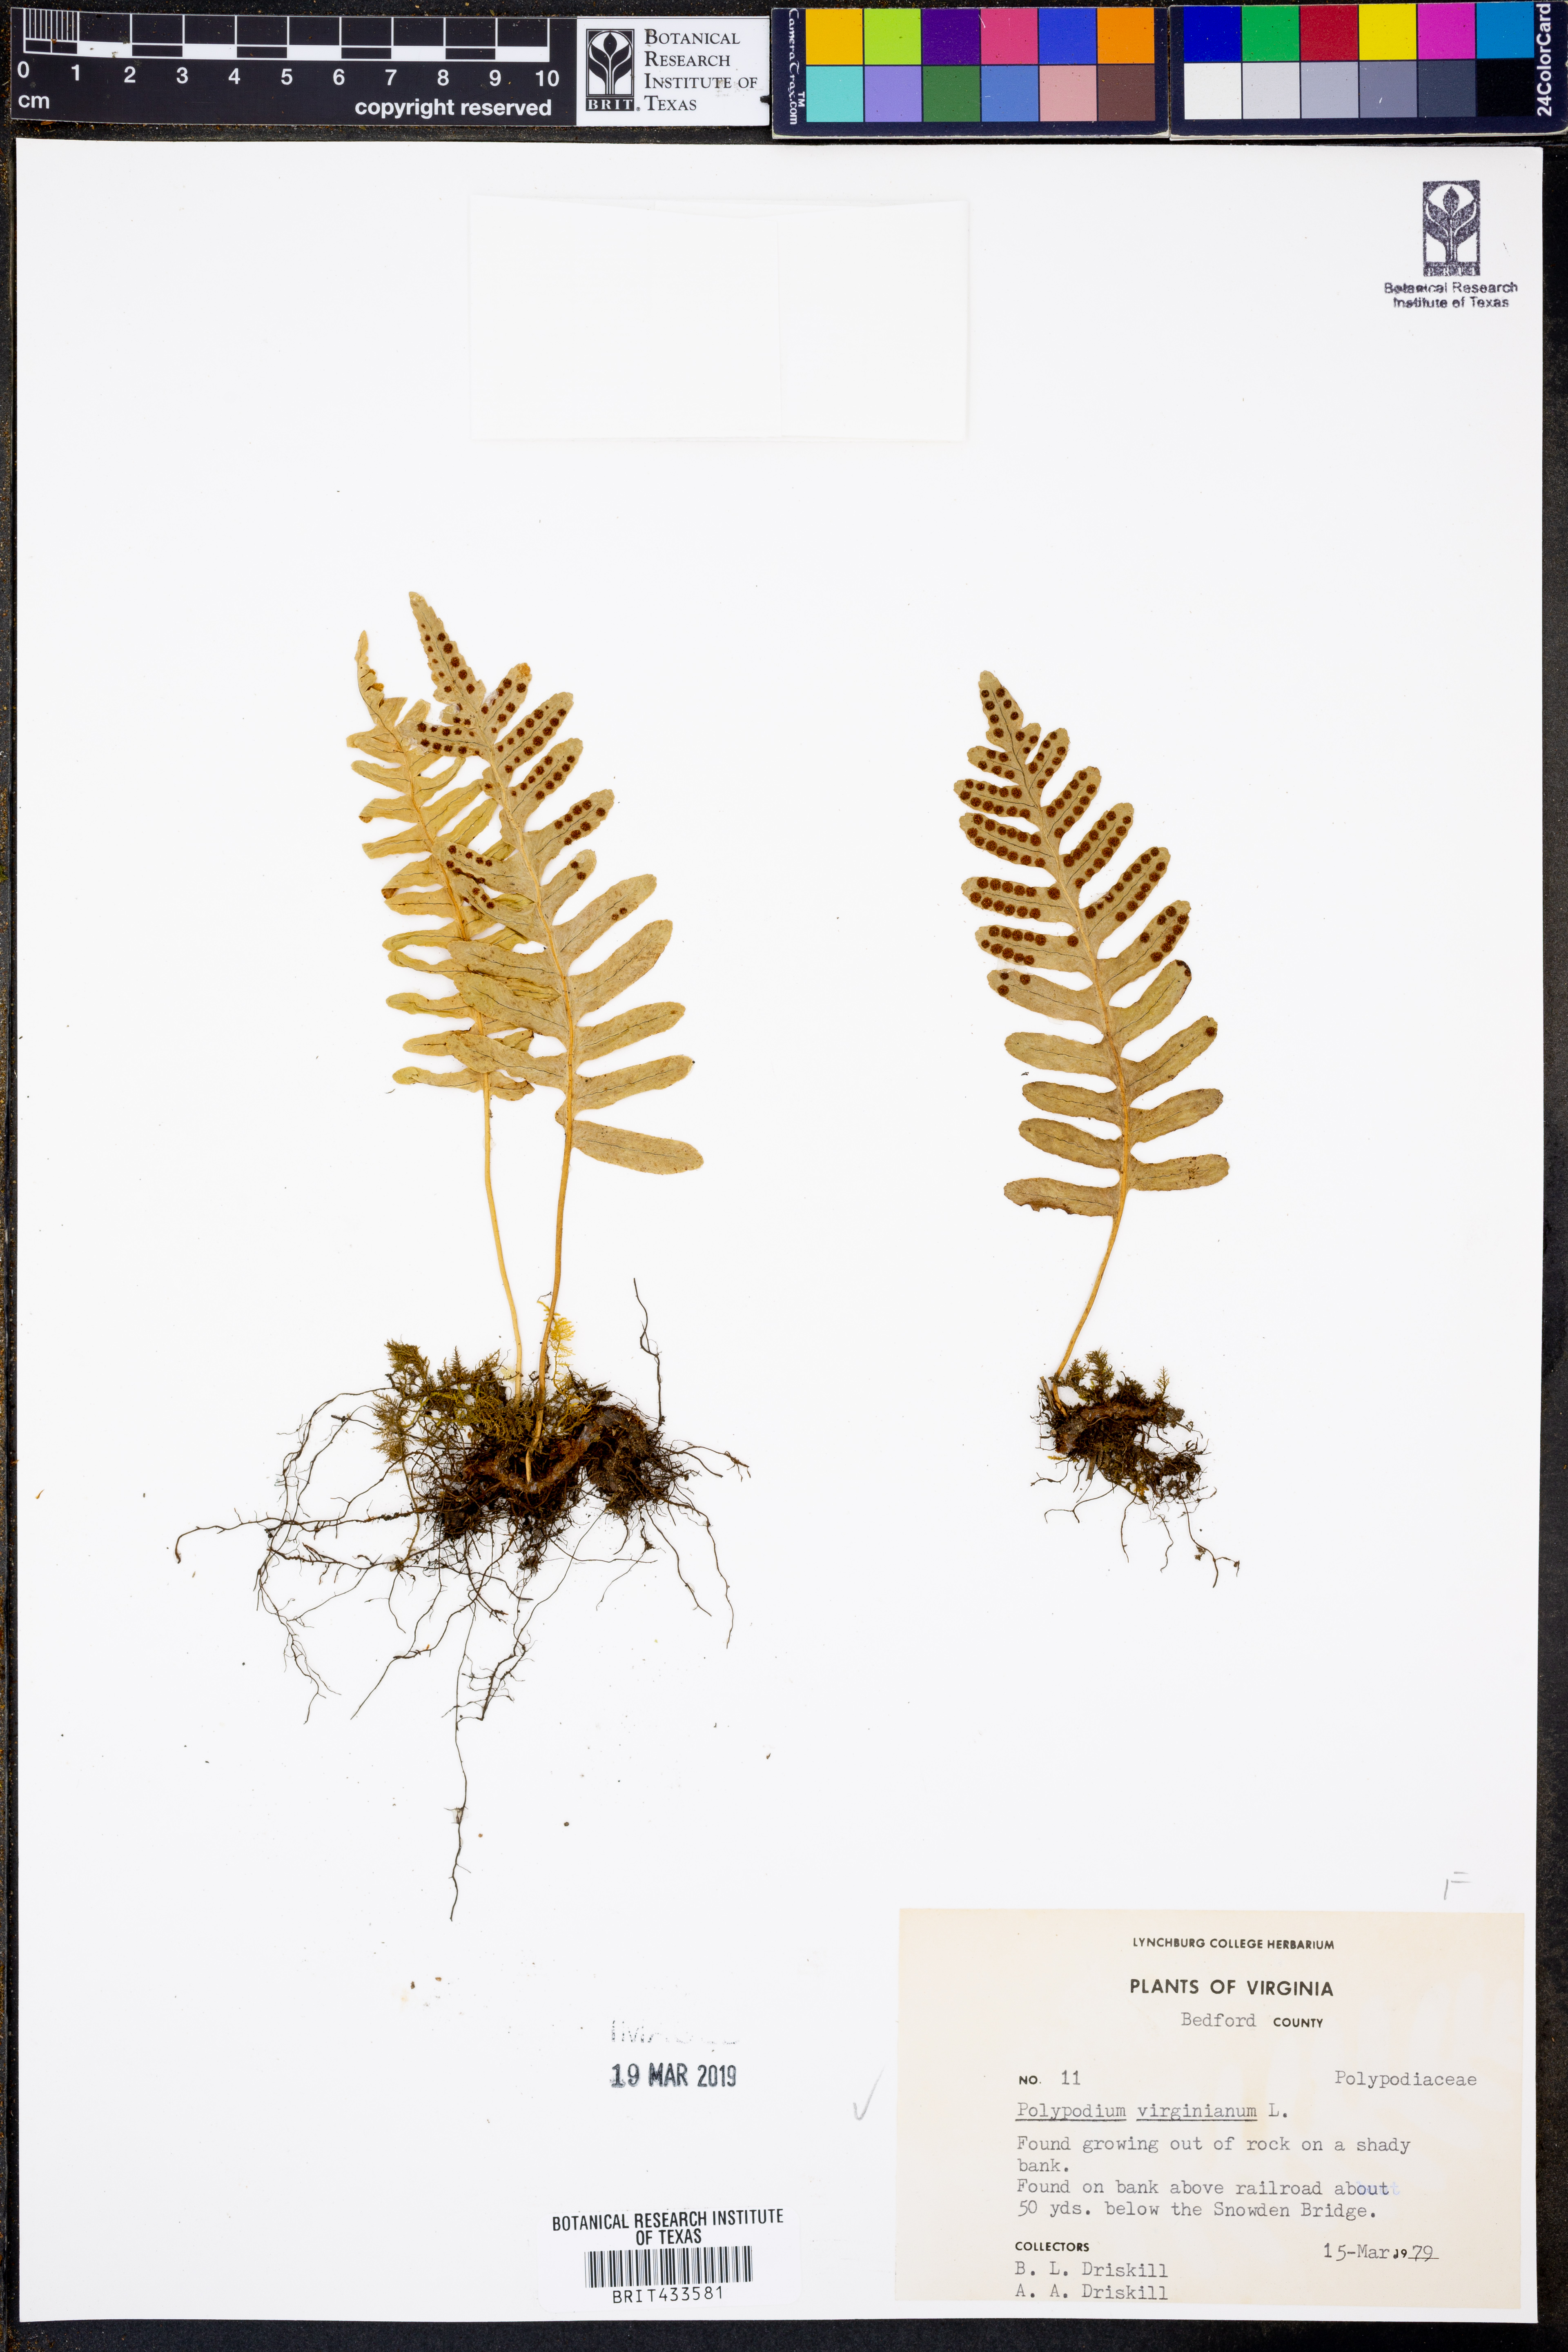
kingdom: Plantae
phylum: Tracheophyta
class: Polypodiopsida
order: Polypodiales
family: Polypodiaceae
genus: Polypodium
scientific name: Polypodium virginianum
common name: American wall fern
